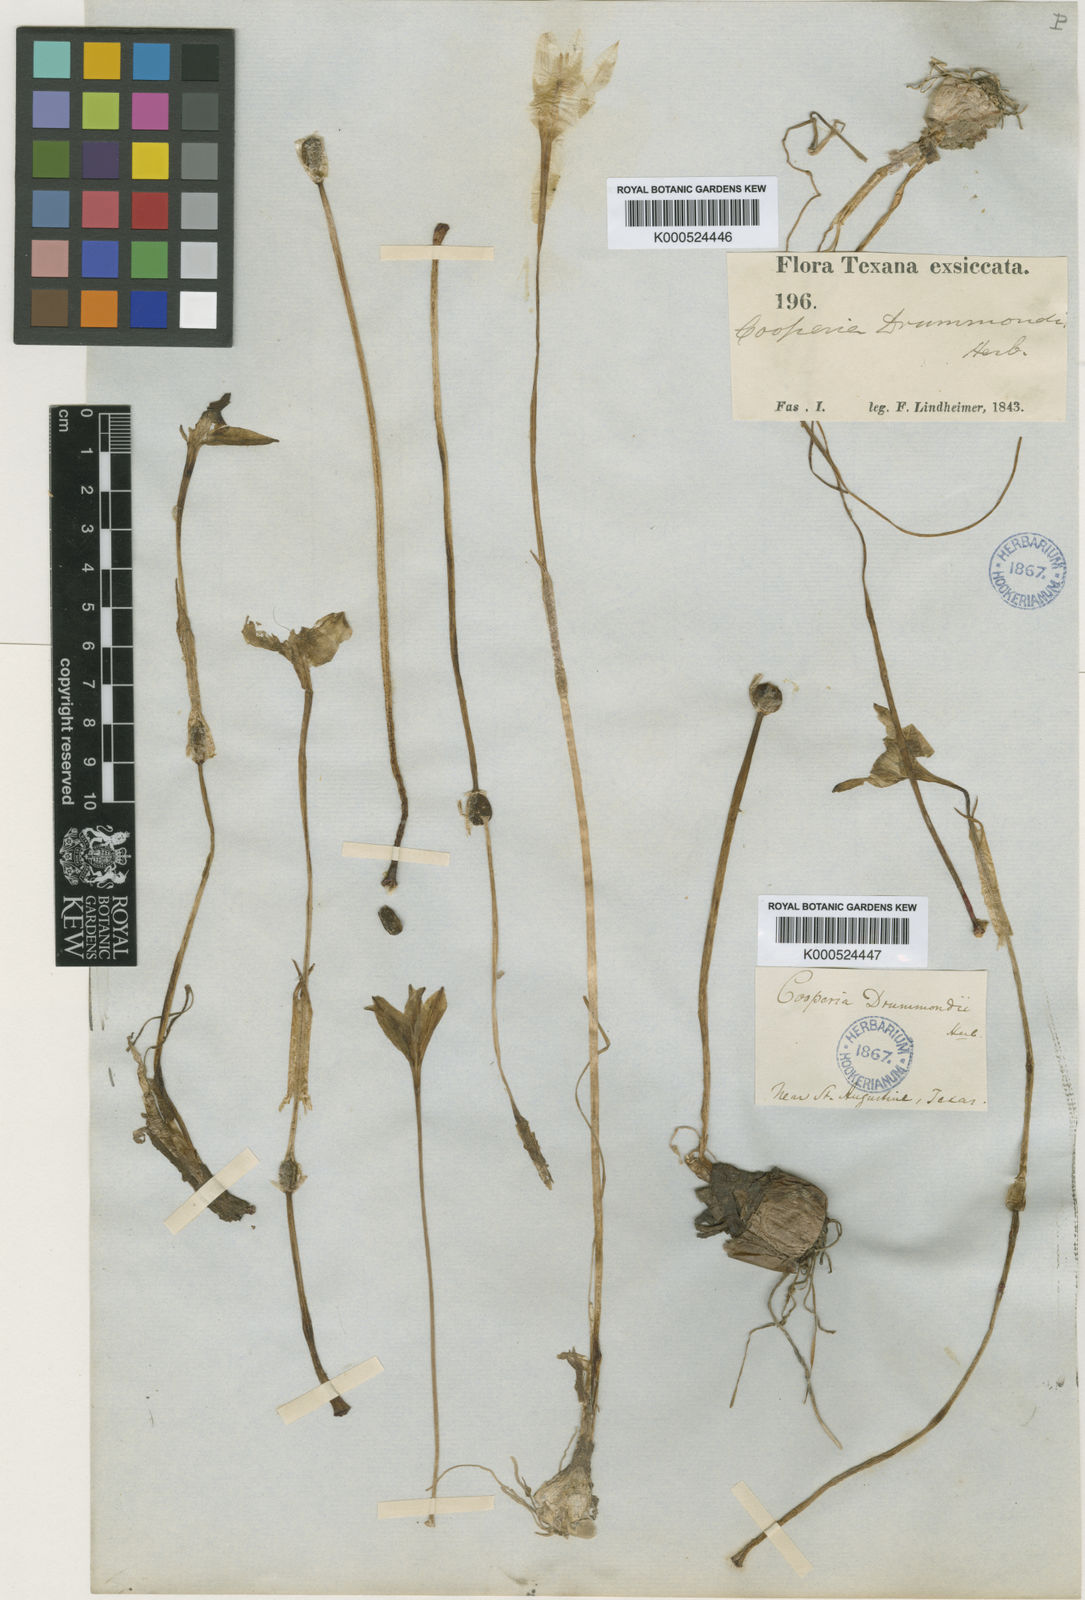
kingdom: Plantae
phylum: Tracheophyta
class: Liliopsida
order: Asparagales
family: Amaryllidaceae
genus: Zephyranthes
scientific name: Zephyranthes chlorosolen
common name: Evening rain-lily
